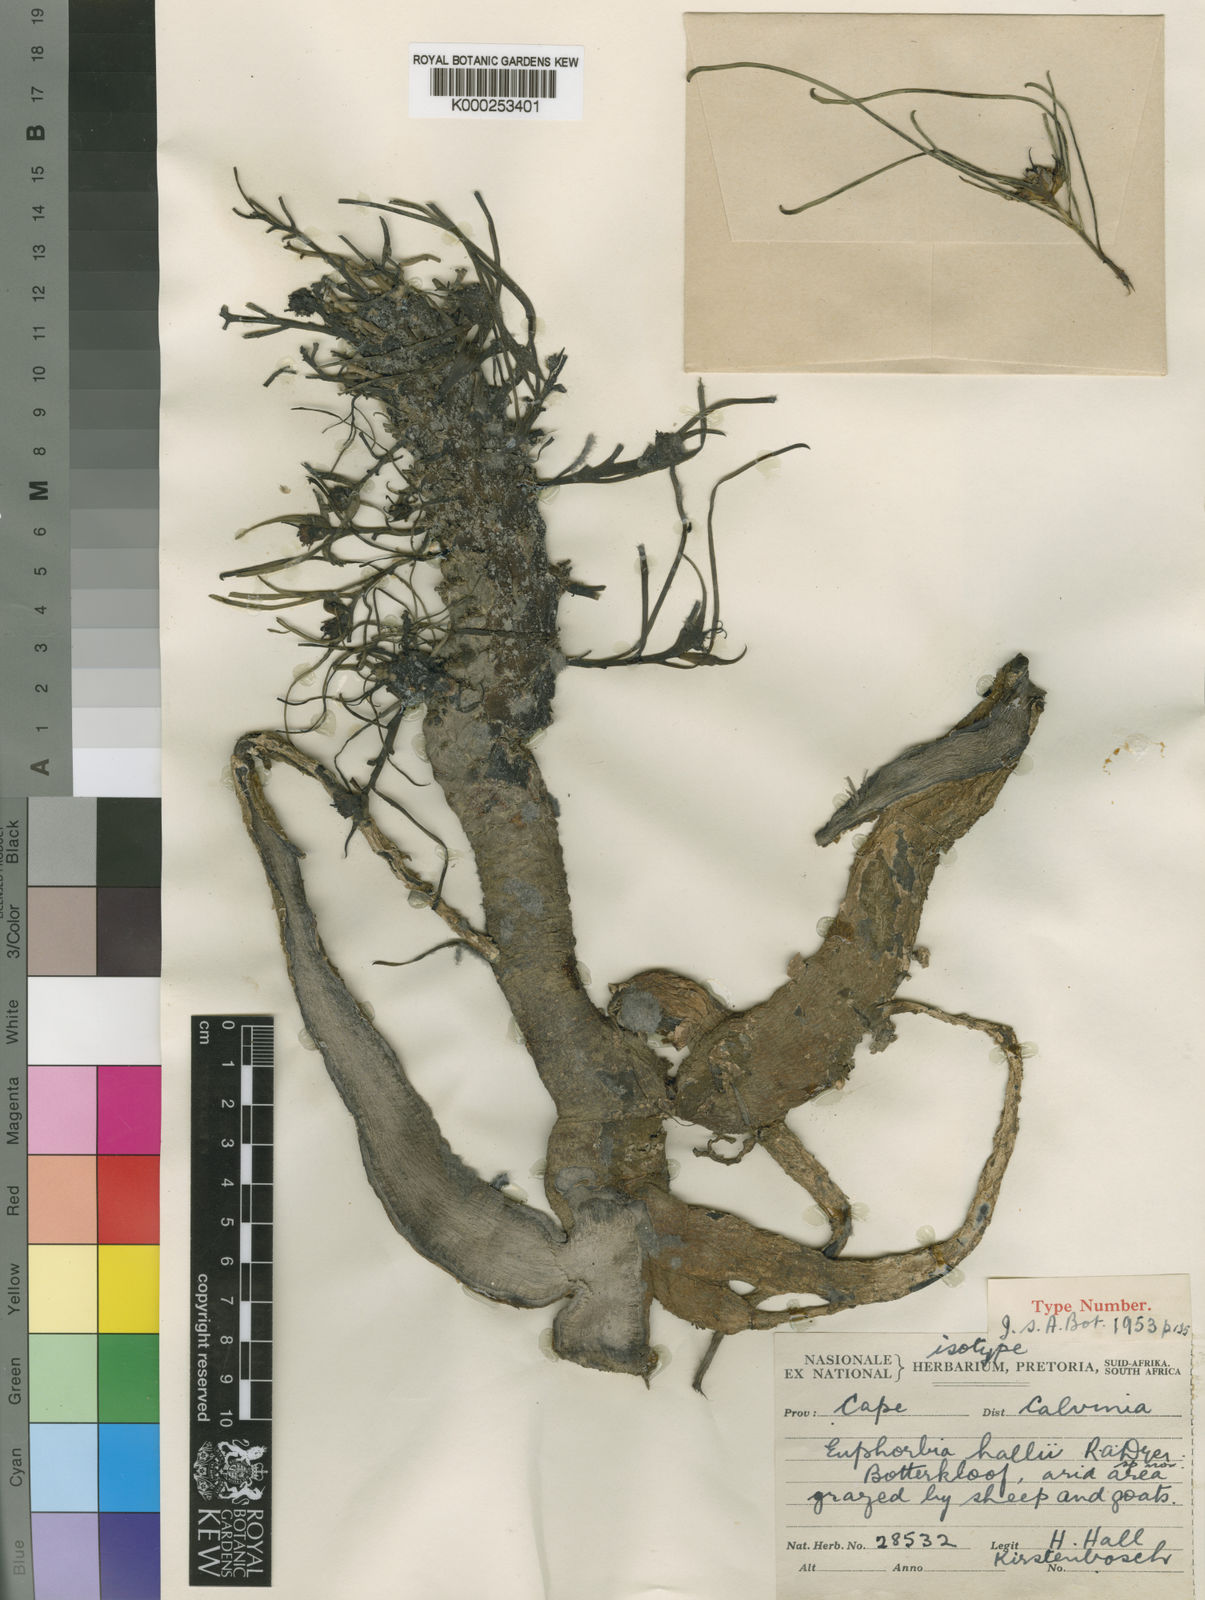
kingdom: Plantae
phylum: Tracheophyta
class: Magnoliopsida
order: Malpighiales
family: Euphorbiaceae
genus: Euphorbia
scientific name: Euphorbia hallii
